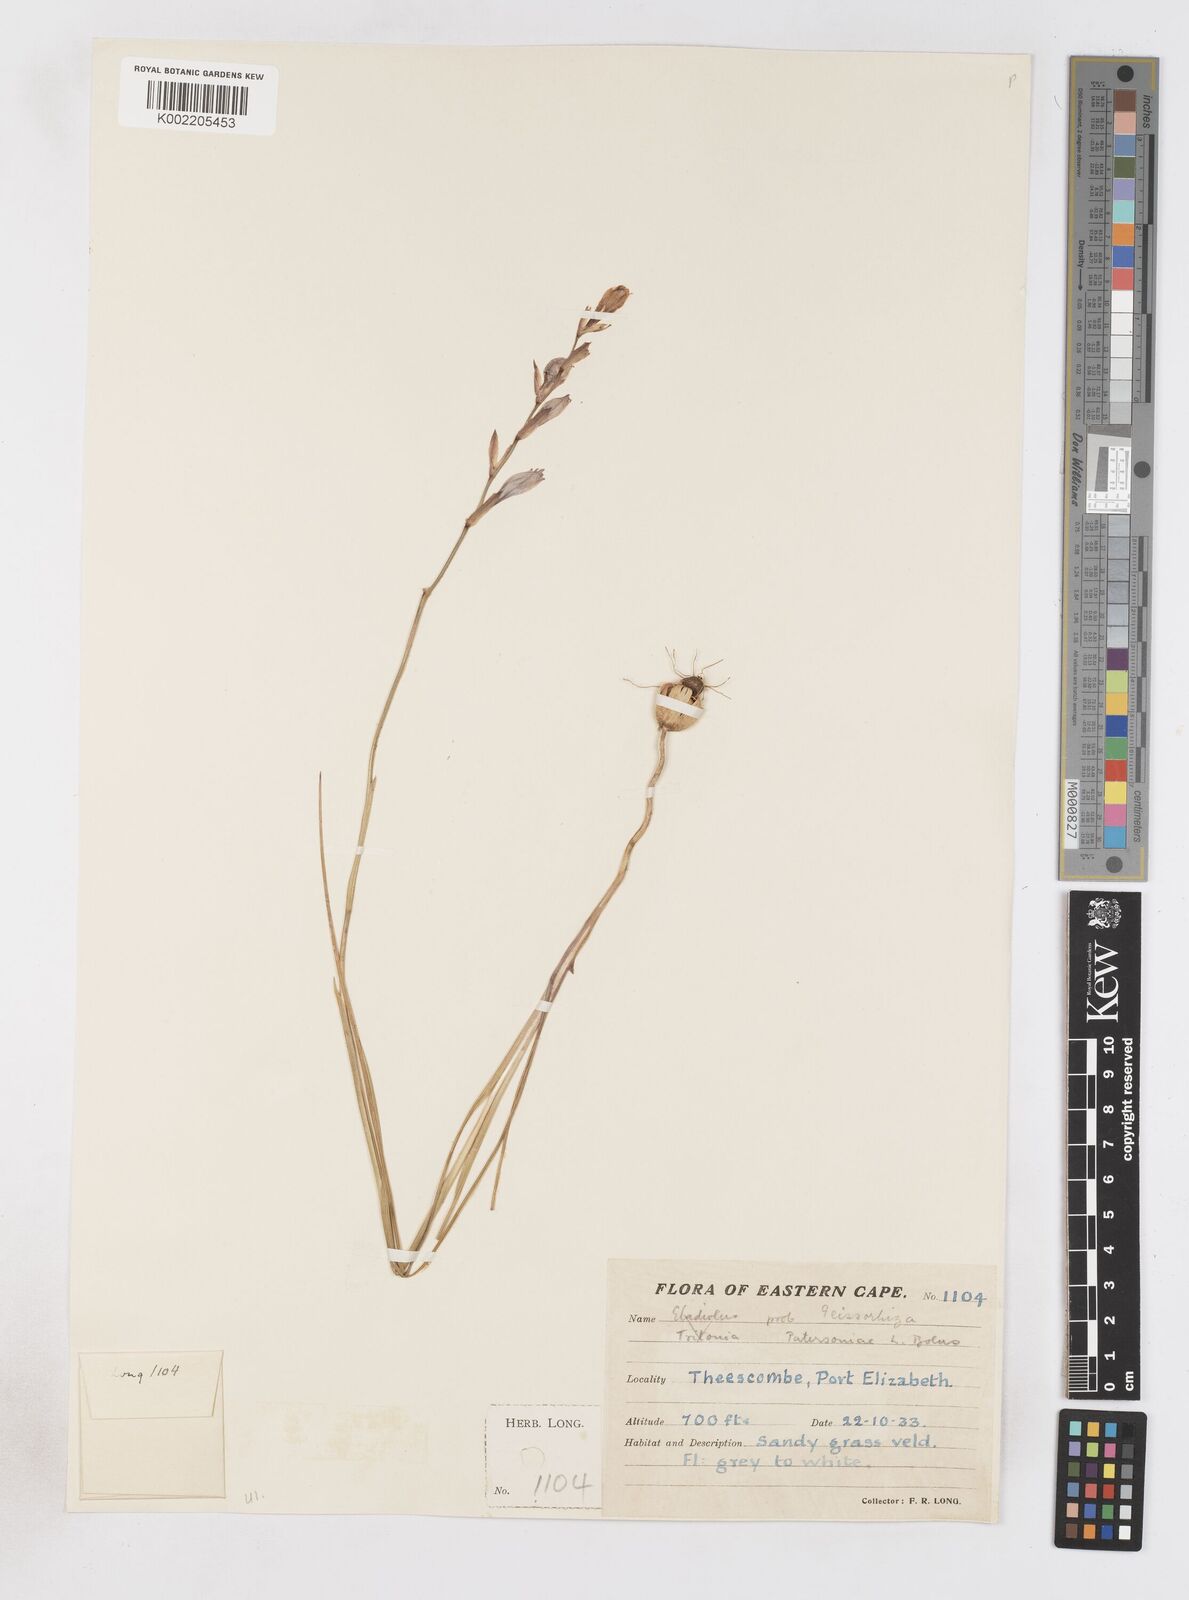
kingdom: Plantae
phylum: Tracheophyta
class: Liliopsida
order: Asparagales
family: Iridaceae
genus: Gladiolus
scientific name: Gladiolus stellatus
